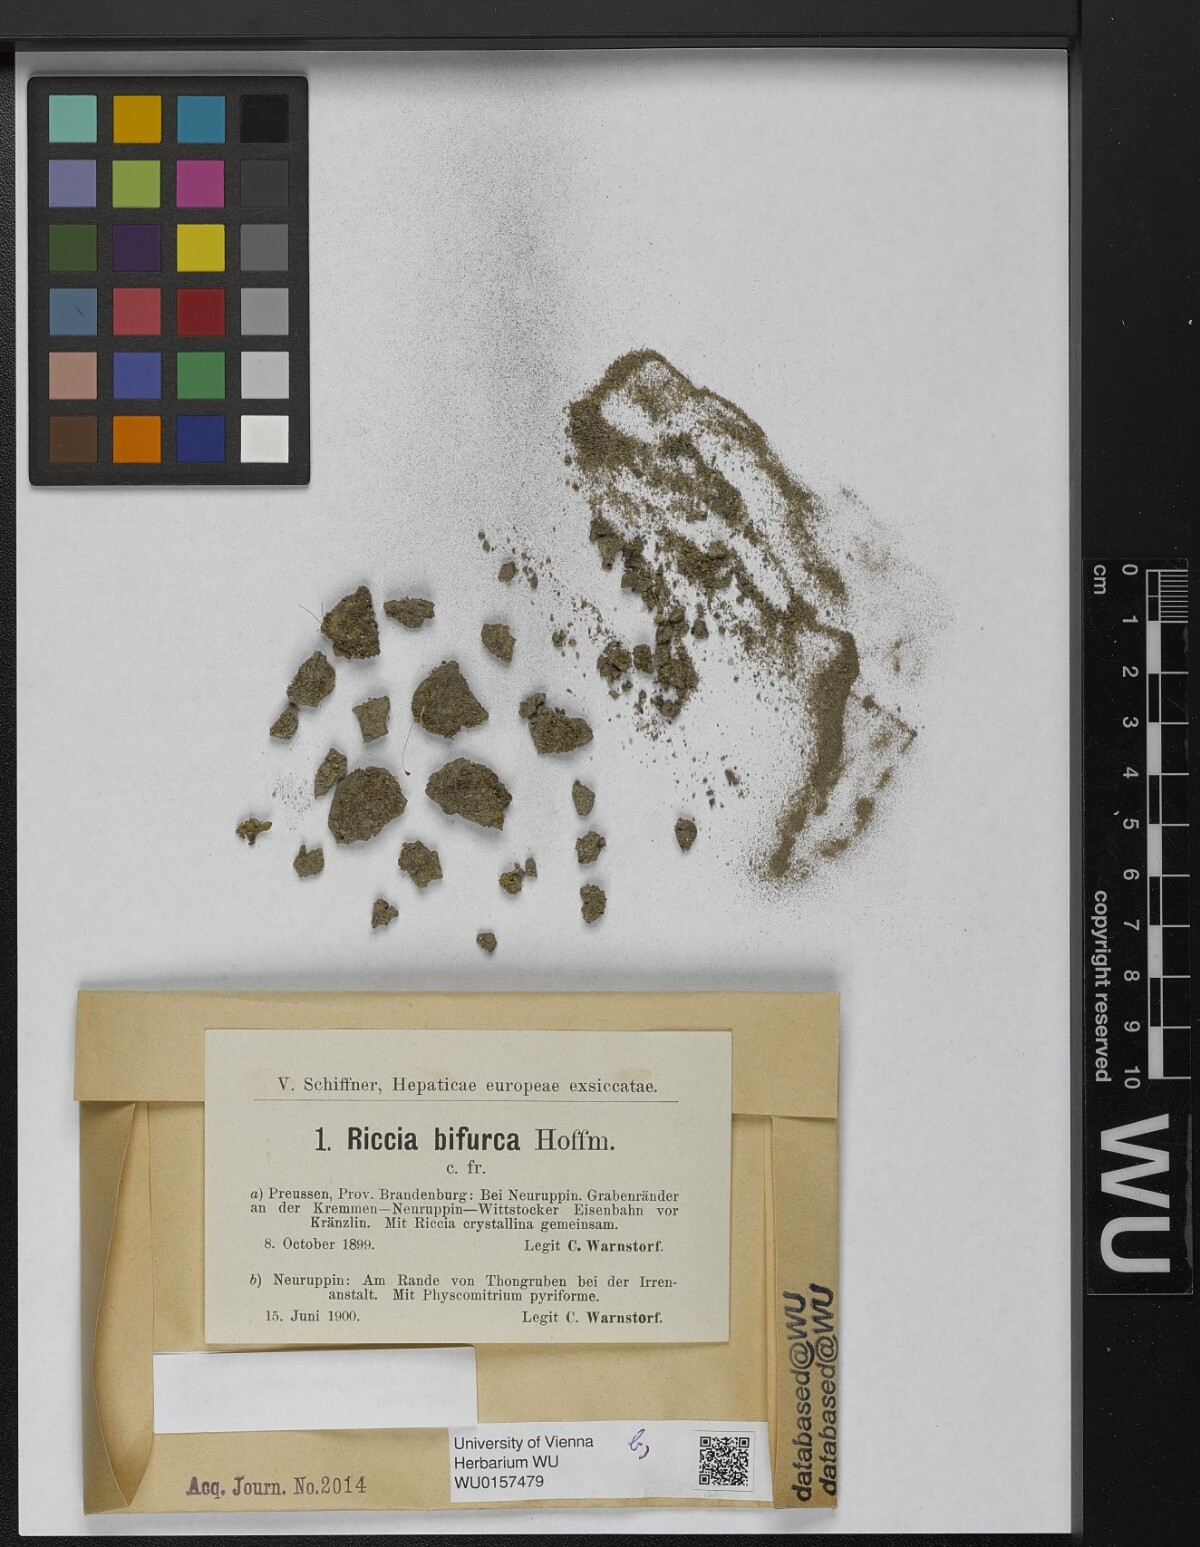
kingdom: Plantae
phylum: Marchantiophyta
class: Marchantiopsida
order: Marchantiales
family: Ricciaceae
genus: Riccia
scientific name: Riccia bifurca
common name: Lizard crystalwort
